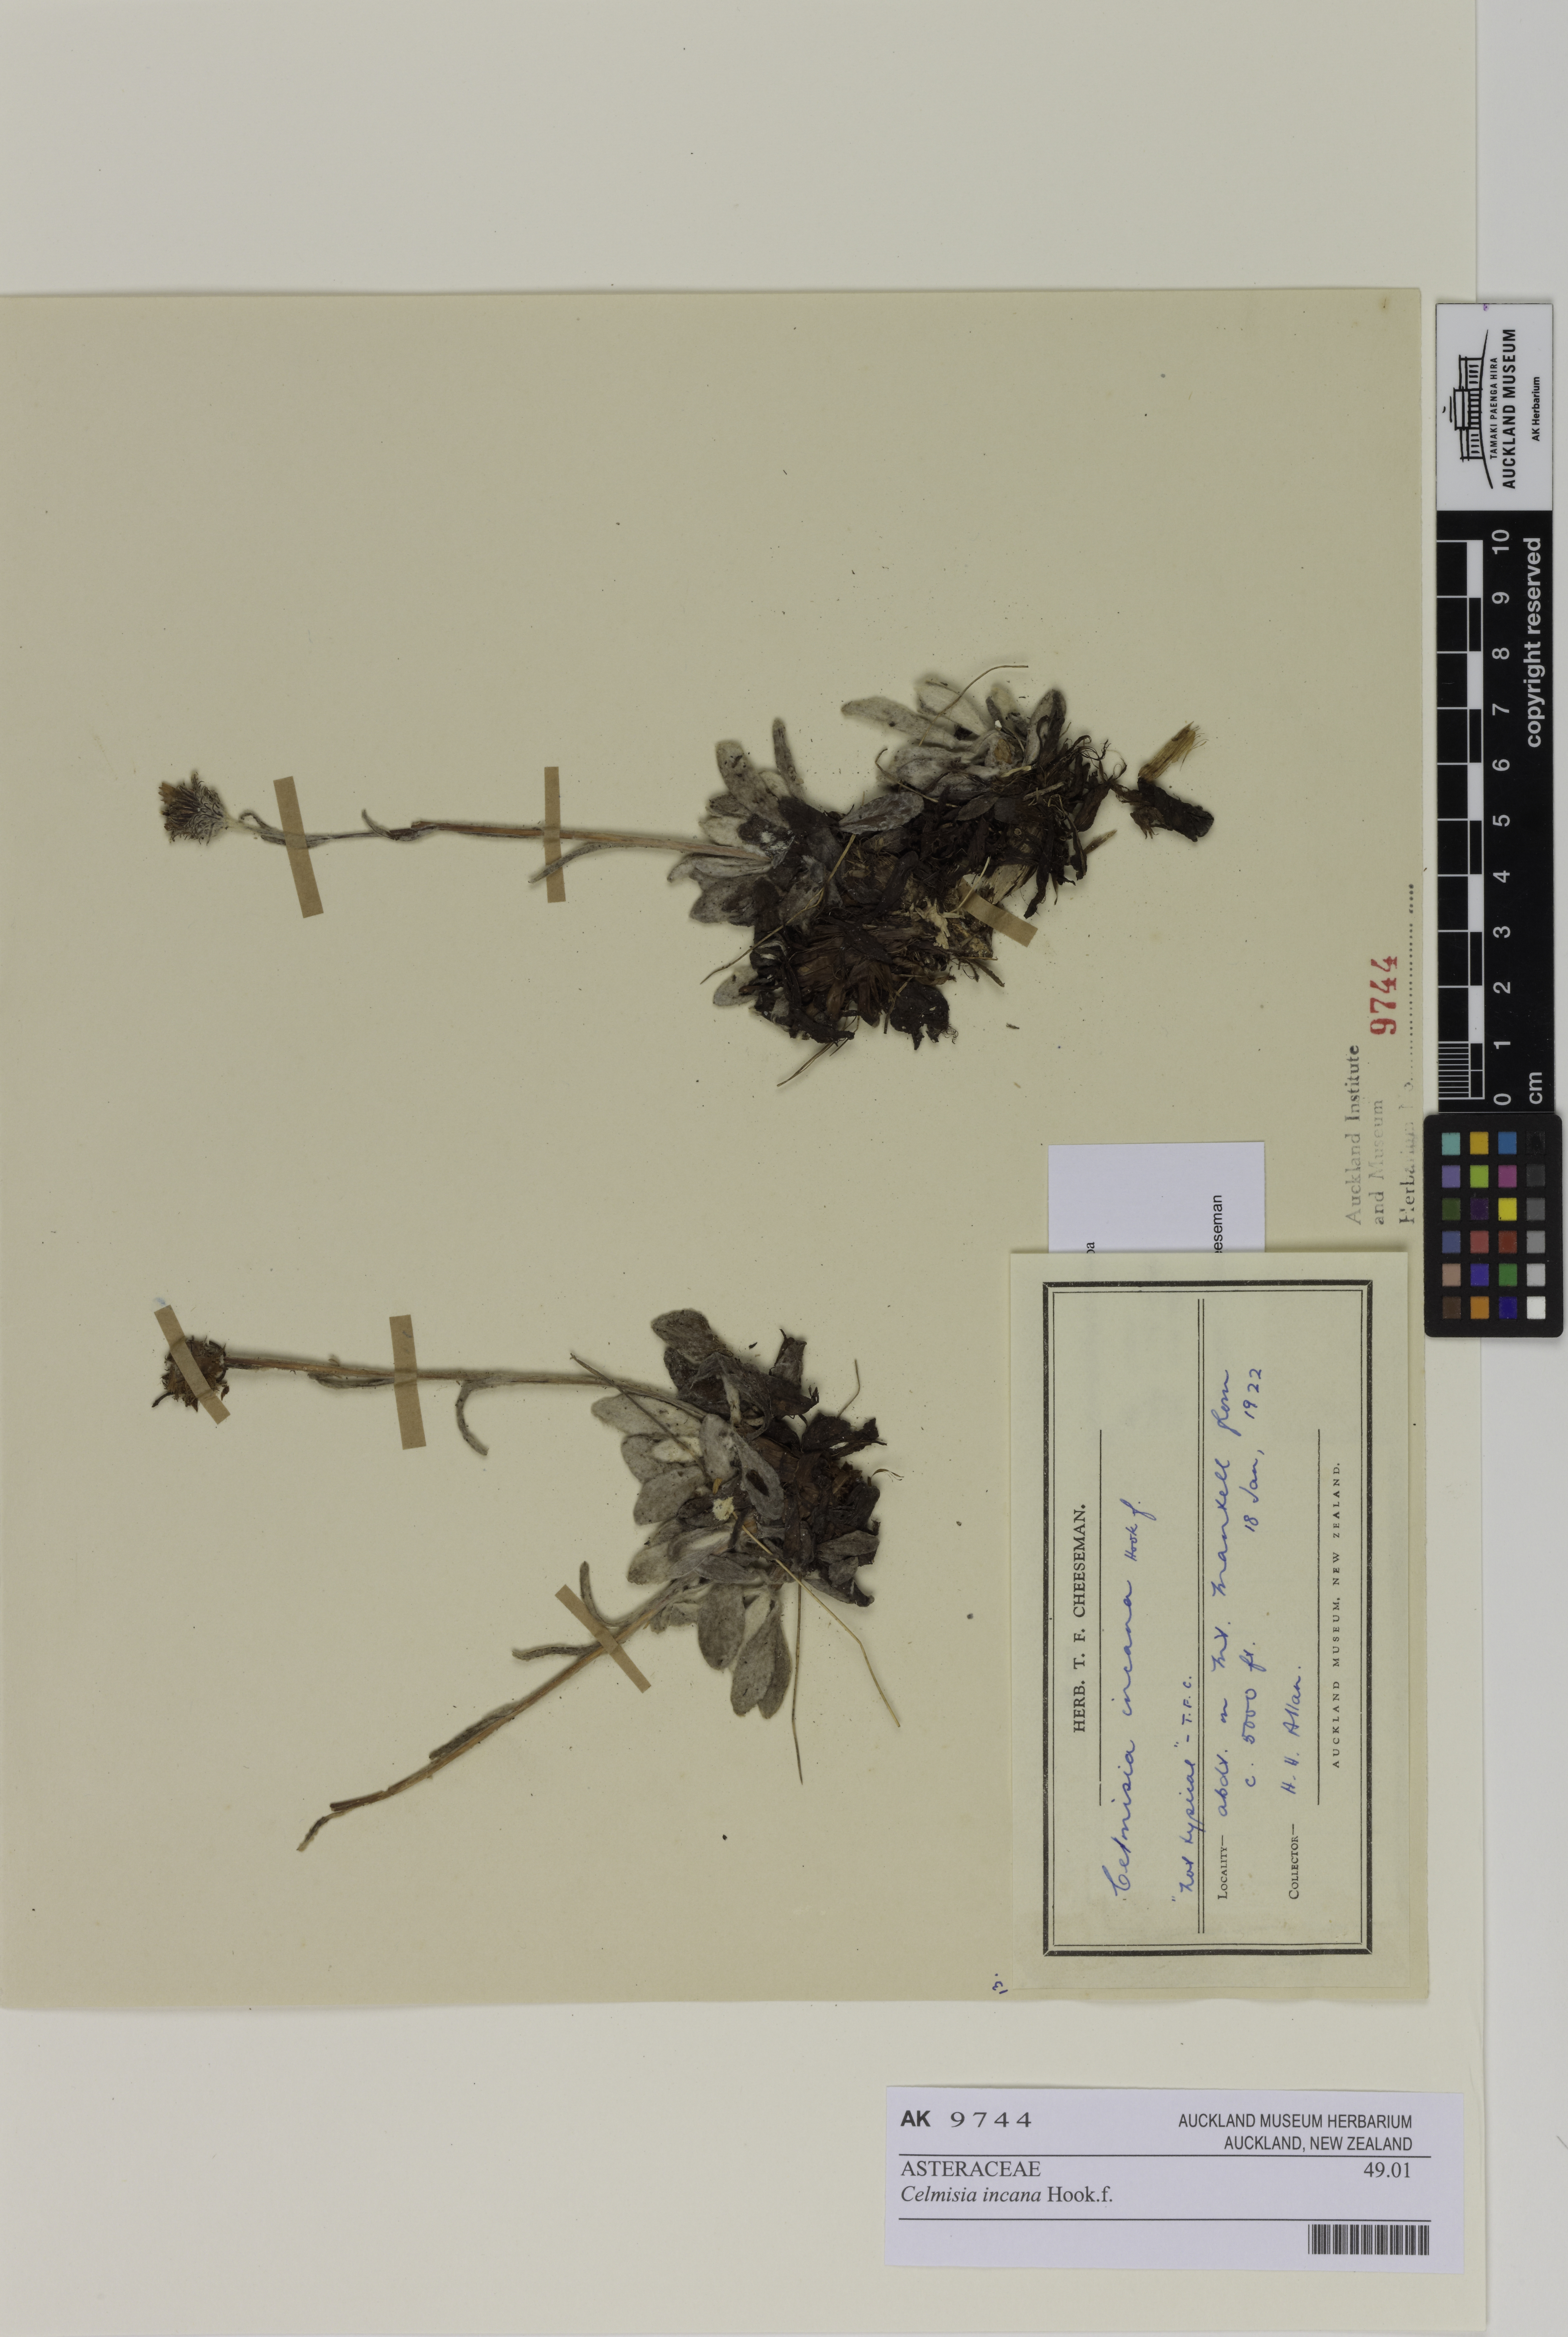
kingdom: Plantae
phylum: Tracheophyta
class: Magnoliopsida
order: Asterales
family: Asteraceae
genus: Celmisia
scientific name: Celmisia incana
